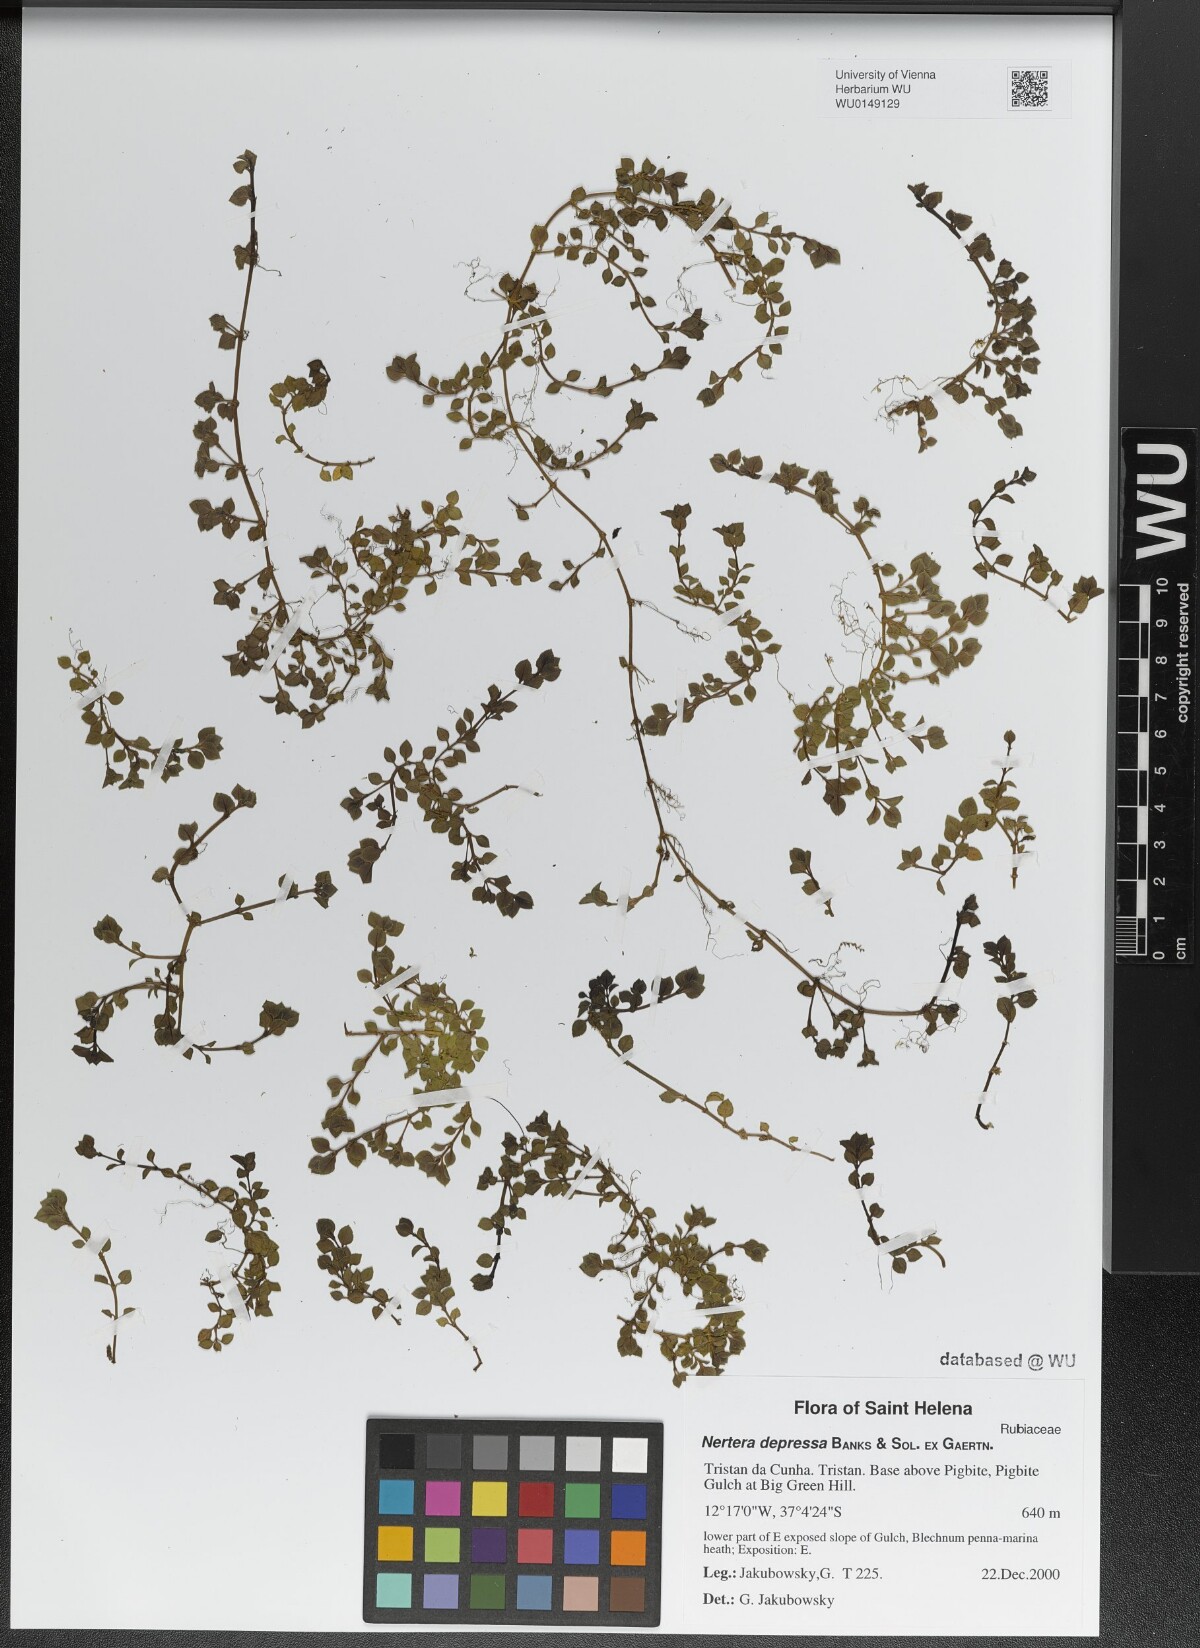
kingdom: Plantae
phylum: Tracheophyta
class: Magnoliopsida
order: Gentianales
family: Rubiaceae
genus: Nertera
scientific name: Nertera granadensis
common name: Beadplant
